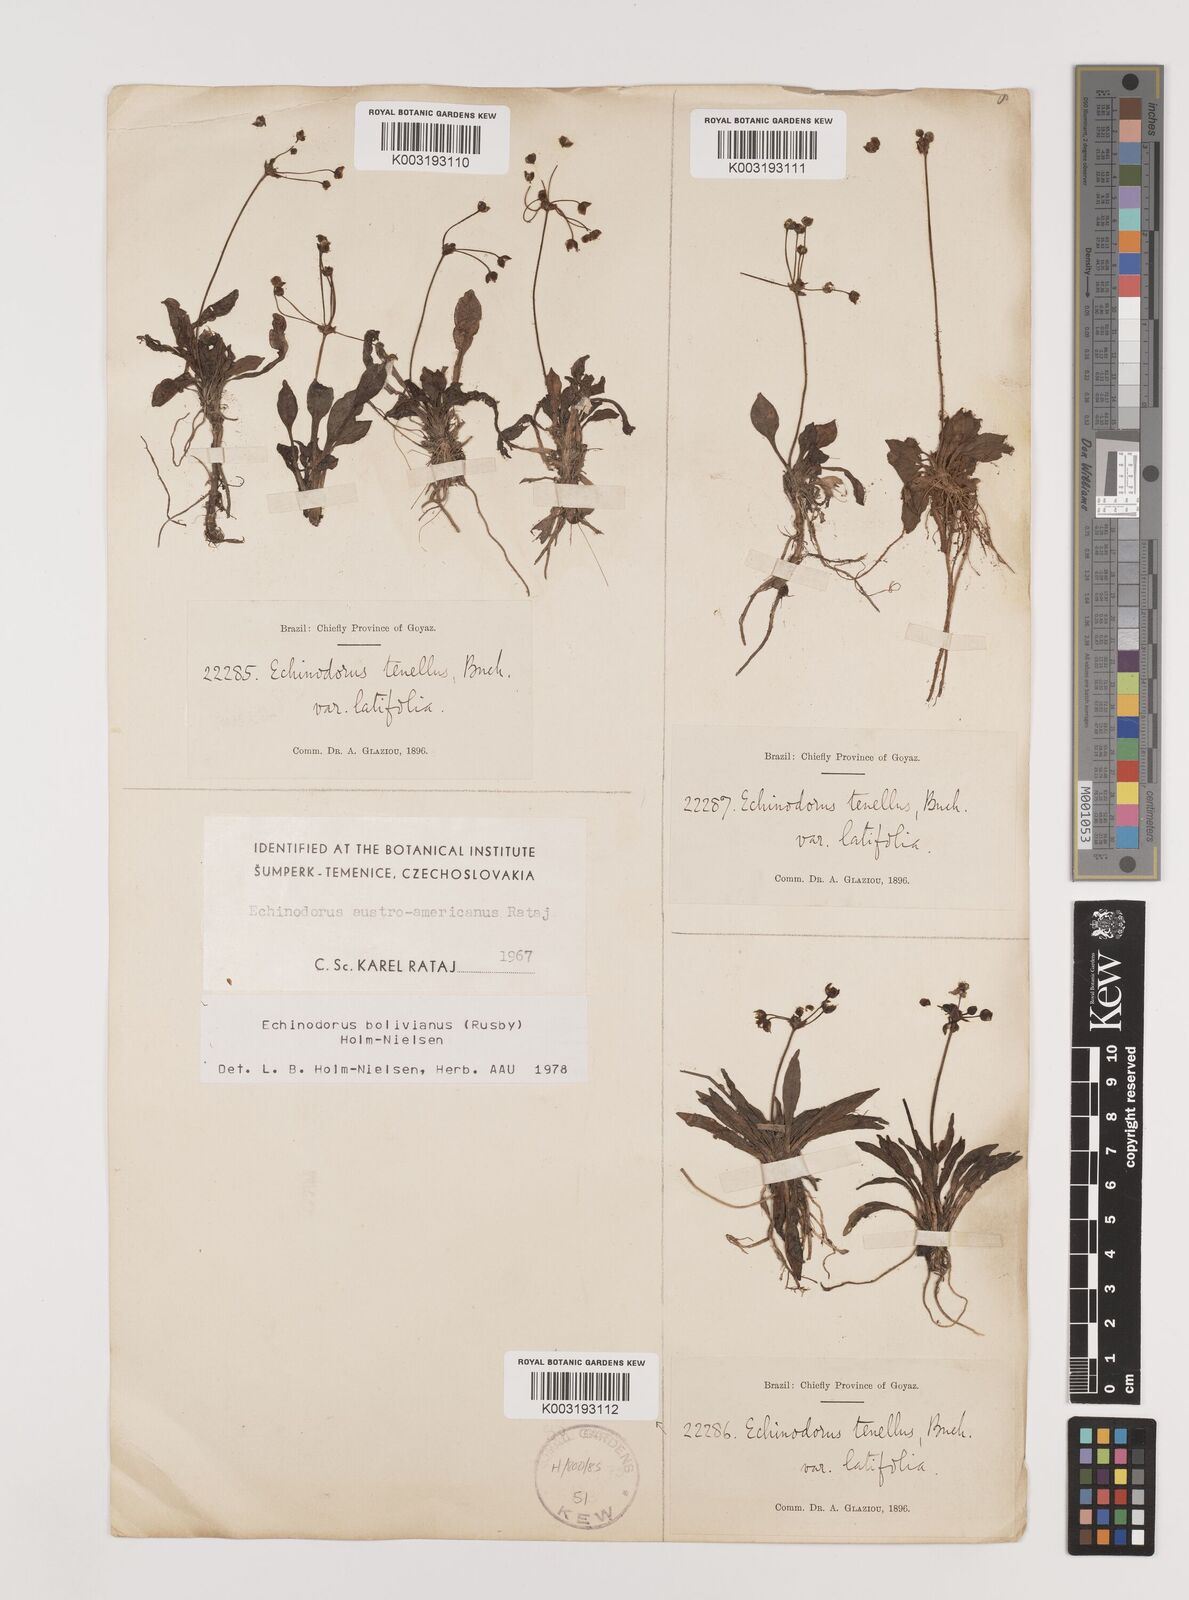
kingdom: Plantae
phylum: Tracheophyta
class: Liliopsida
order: Alismatales
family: Alismataceae
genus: Helanthium
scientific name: Helanthium bolivianum
